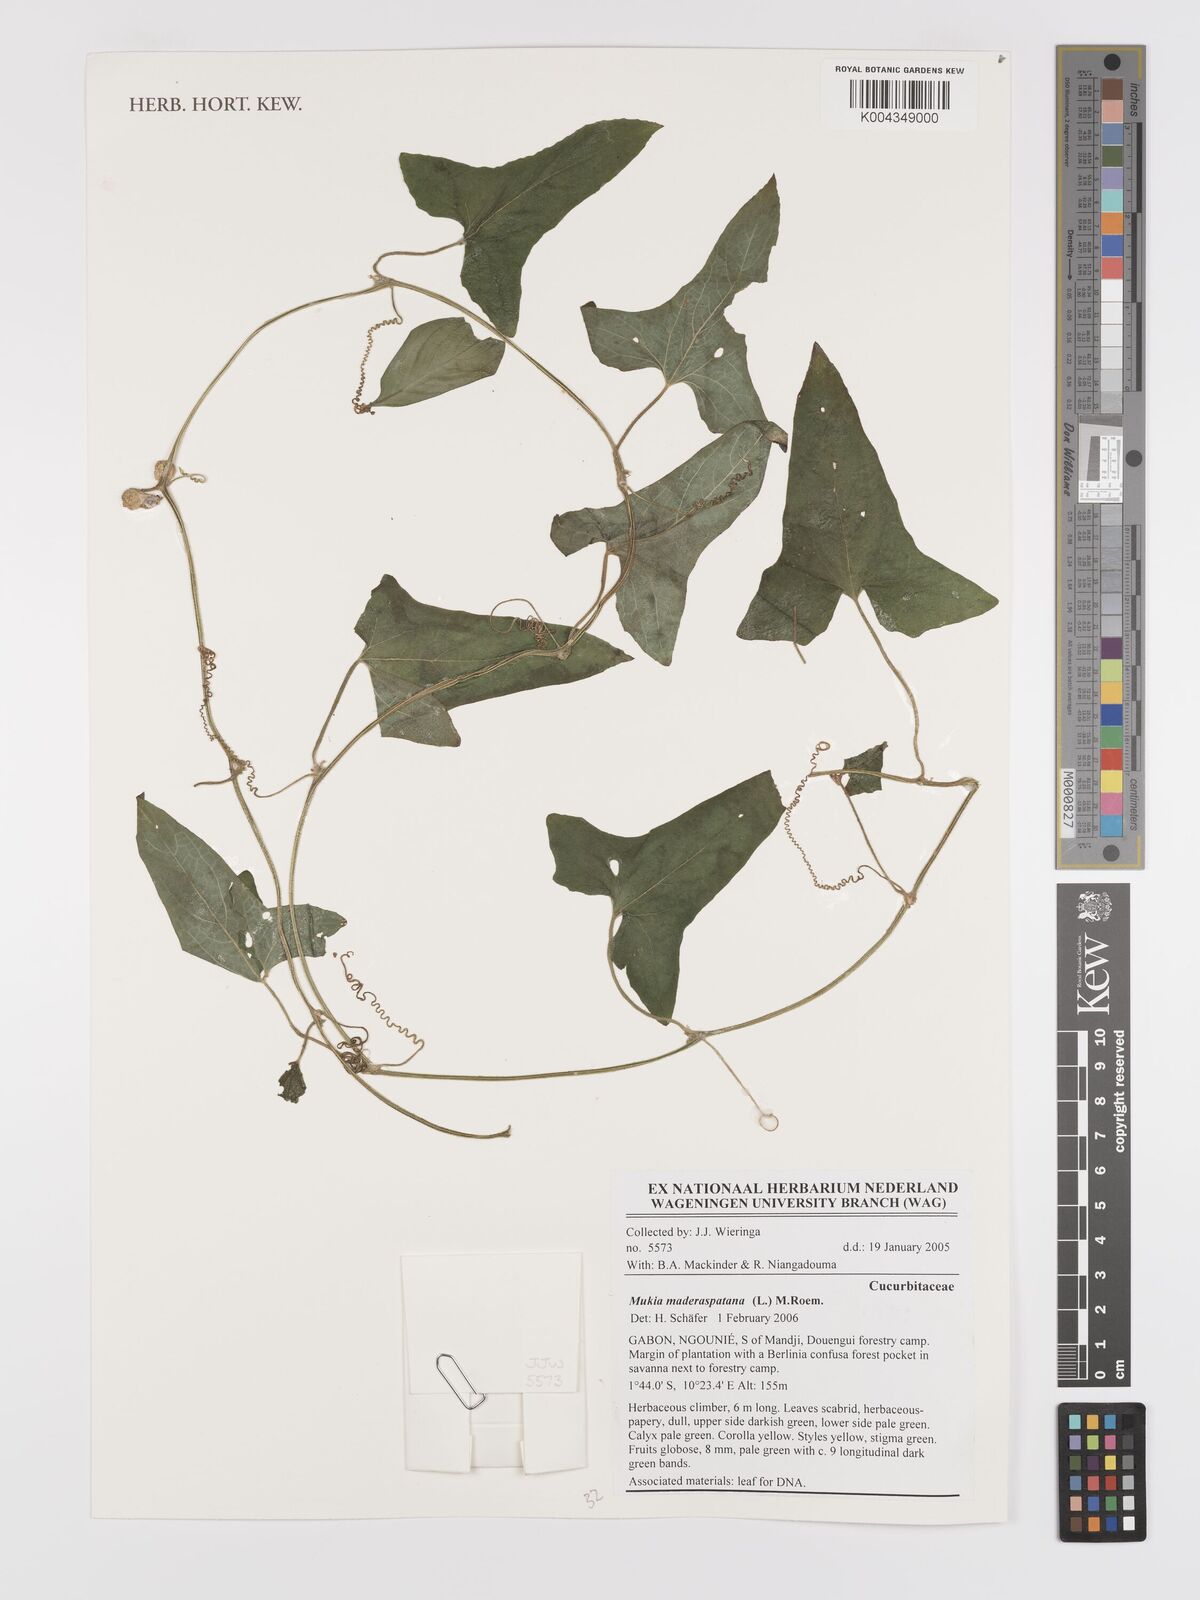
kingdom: Plantae
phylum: Tracheophyta
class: Magnoliopsida
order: Cucurbitales
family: Cucurbitaceae
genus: Cucumis
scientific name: Cucumis maderaspatanus
